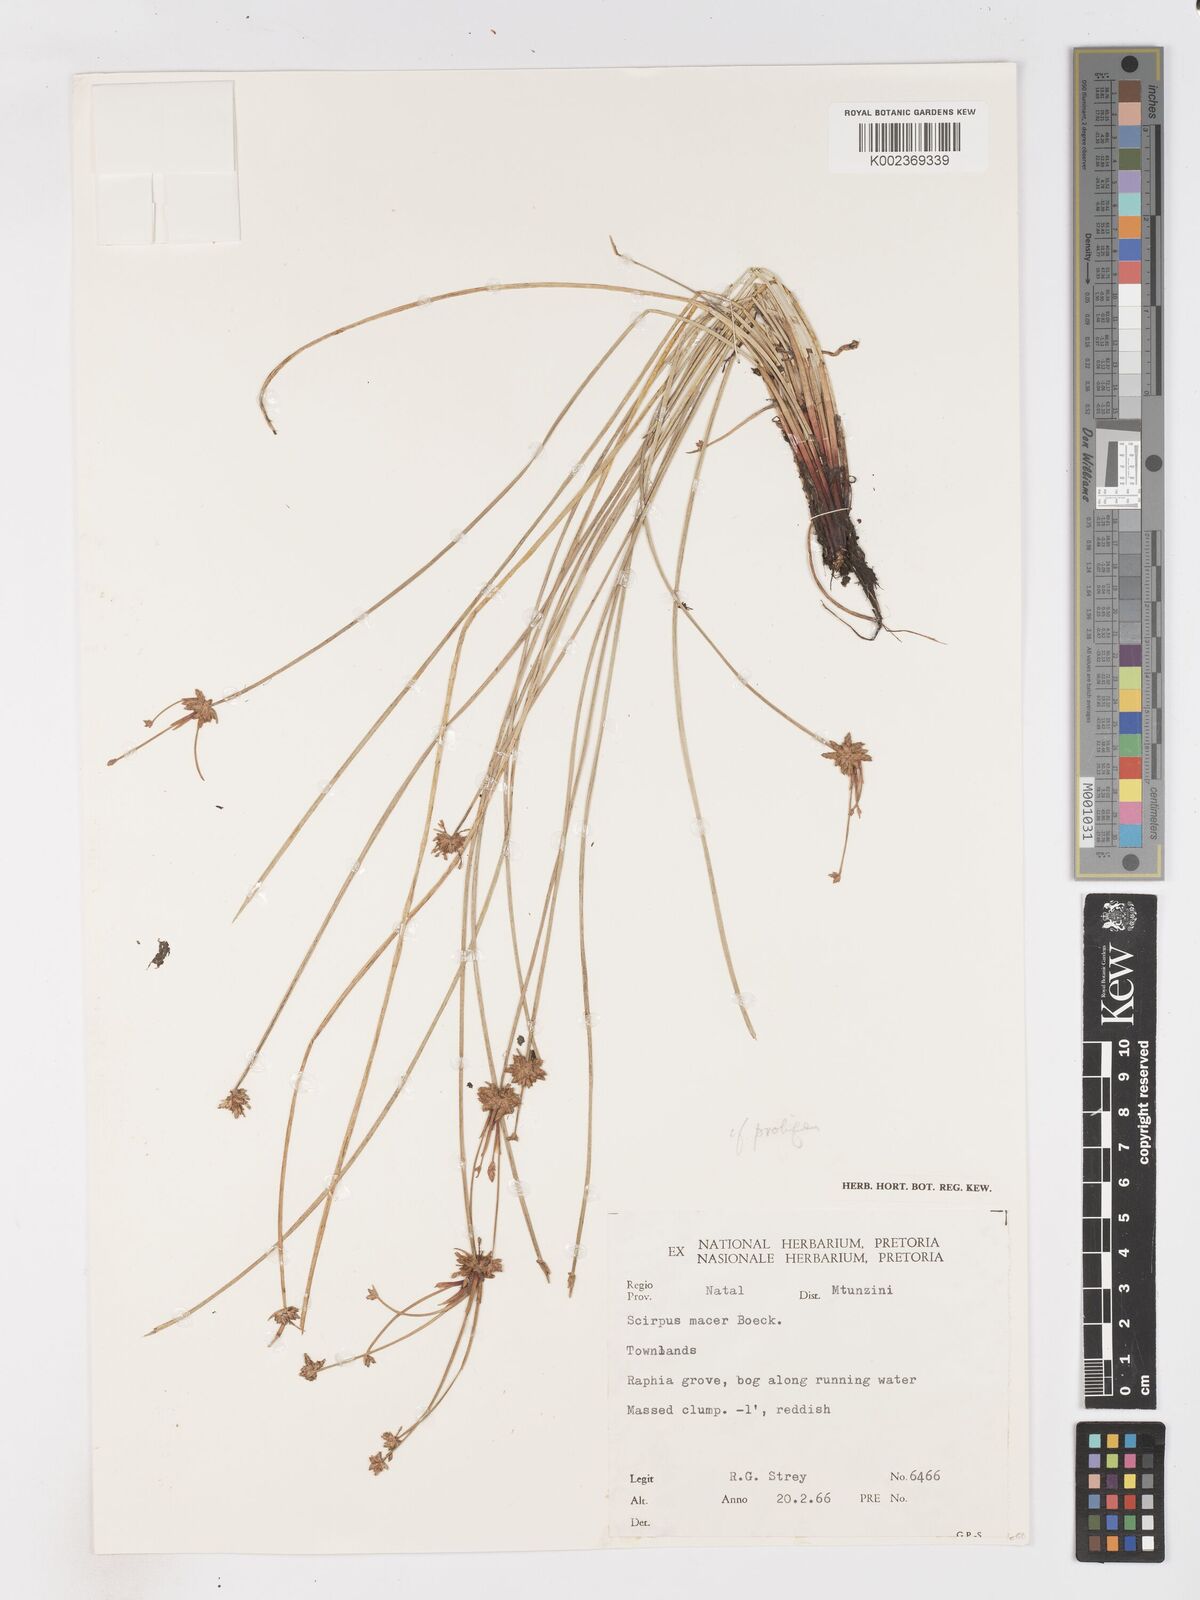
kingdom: Plantae
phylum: Tracheophyta
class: Liliopsida
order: Poales
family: Cyperaceae
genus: Isolepis
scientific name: Isolepis prolifera
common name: Proliferating bulrush
